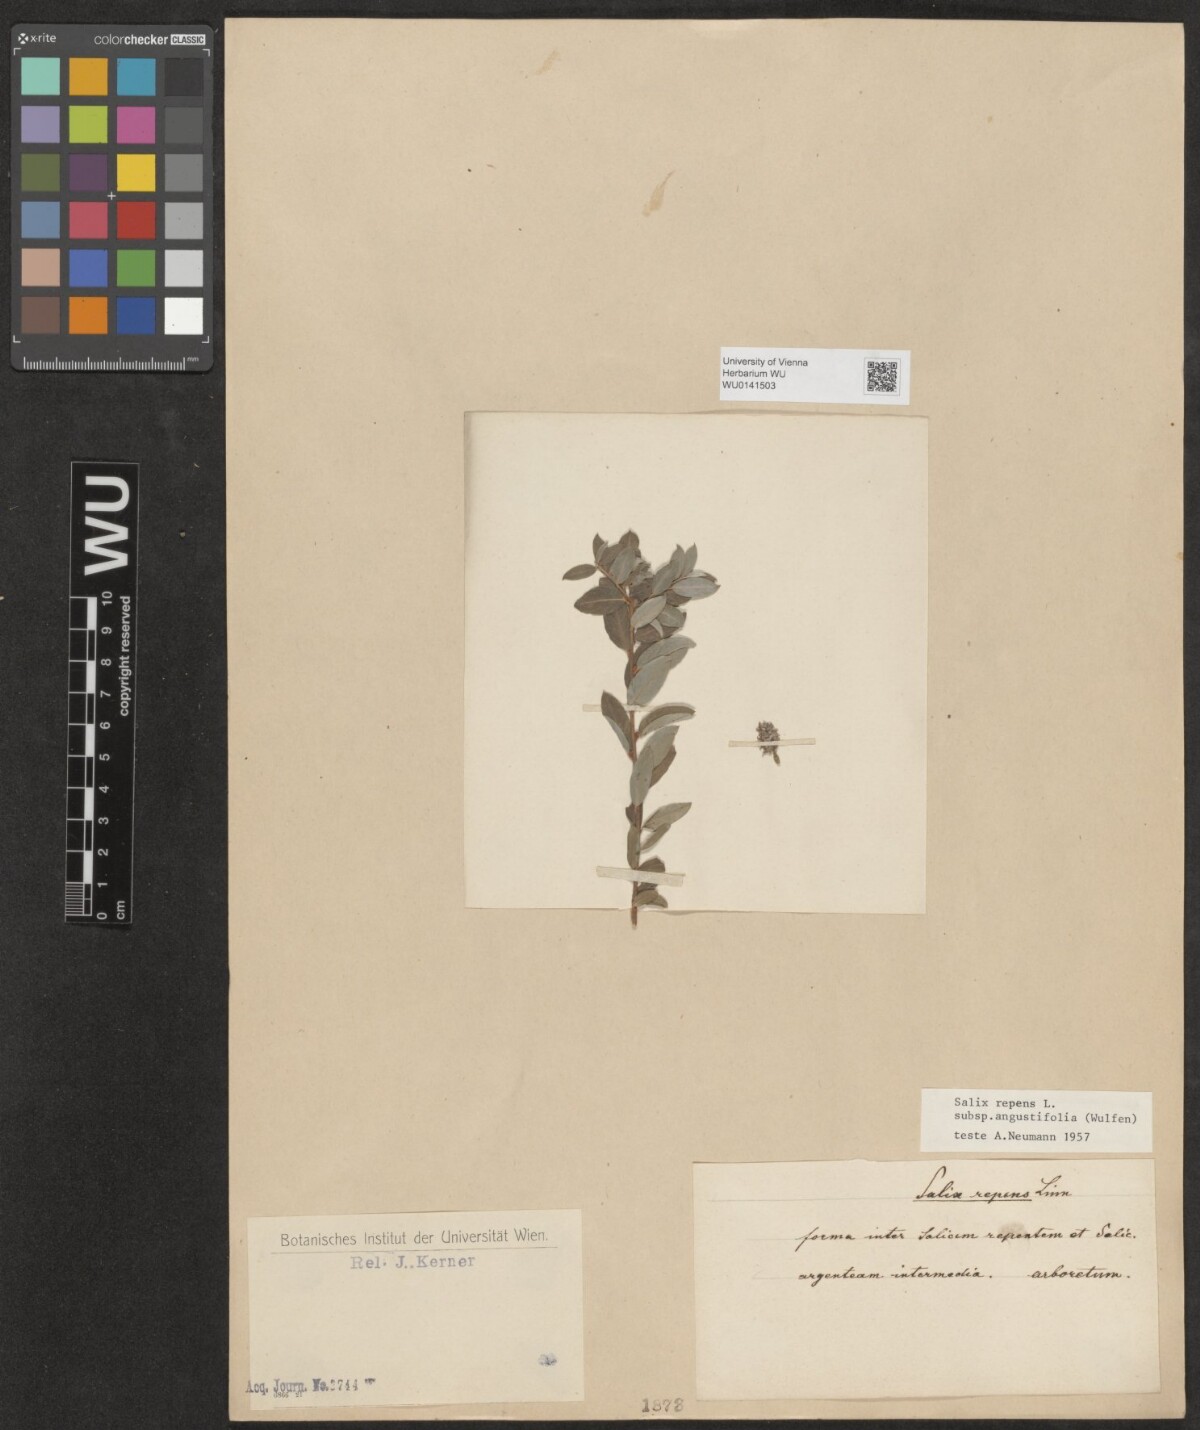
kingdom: Plantae
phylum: Tracheophyta
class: Magnoliopsida
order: Malpighiales
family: Salicaceae
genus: Salix
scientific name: Salix rosmarinifolia
